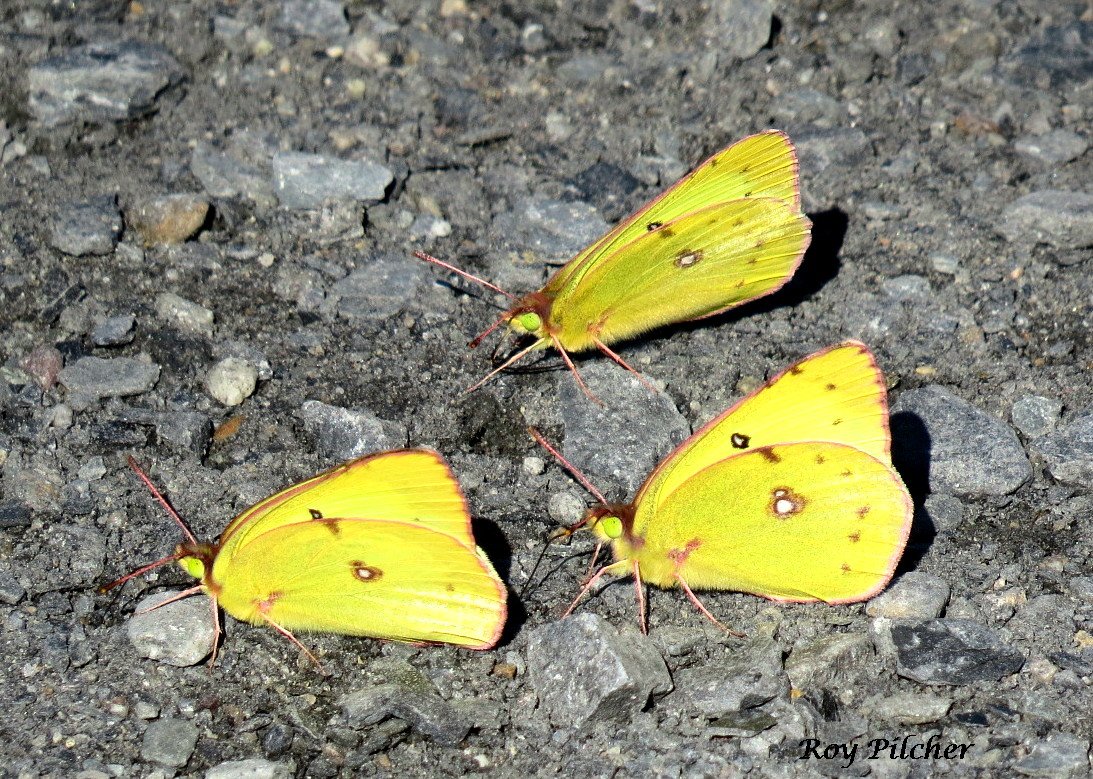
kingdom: Animalia
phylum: Arthropoda
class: Insecta
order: Lepidoptera
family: Pieridae
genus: Colias
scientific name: Colias philodice
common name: Clouded Sulphur
